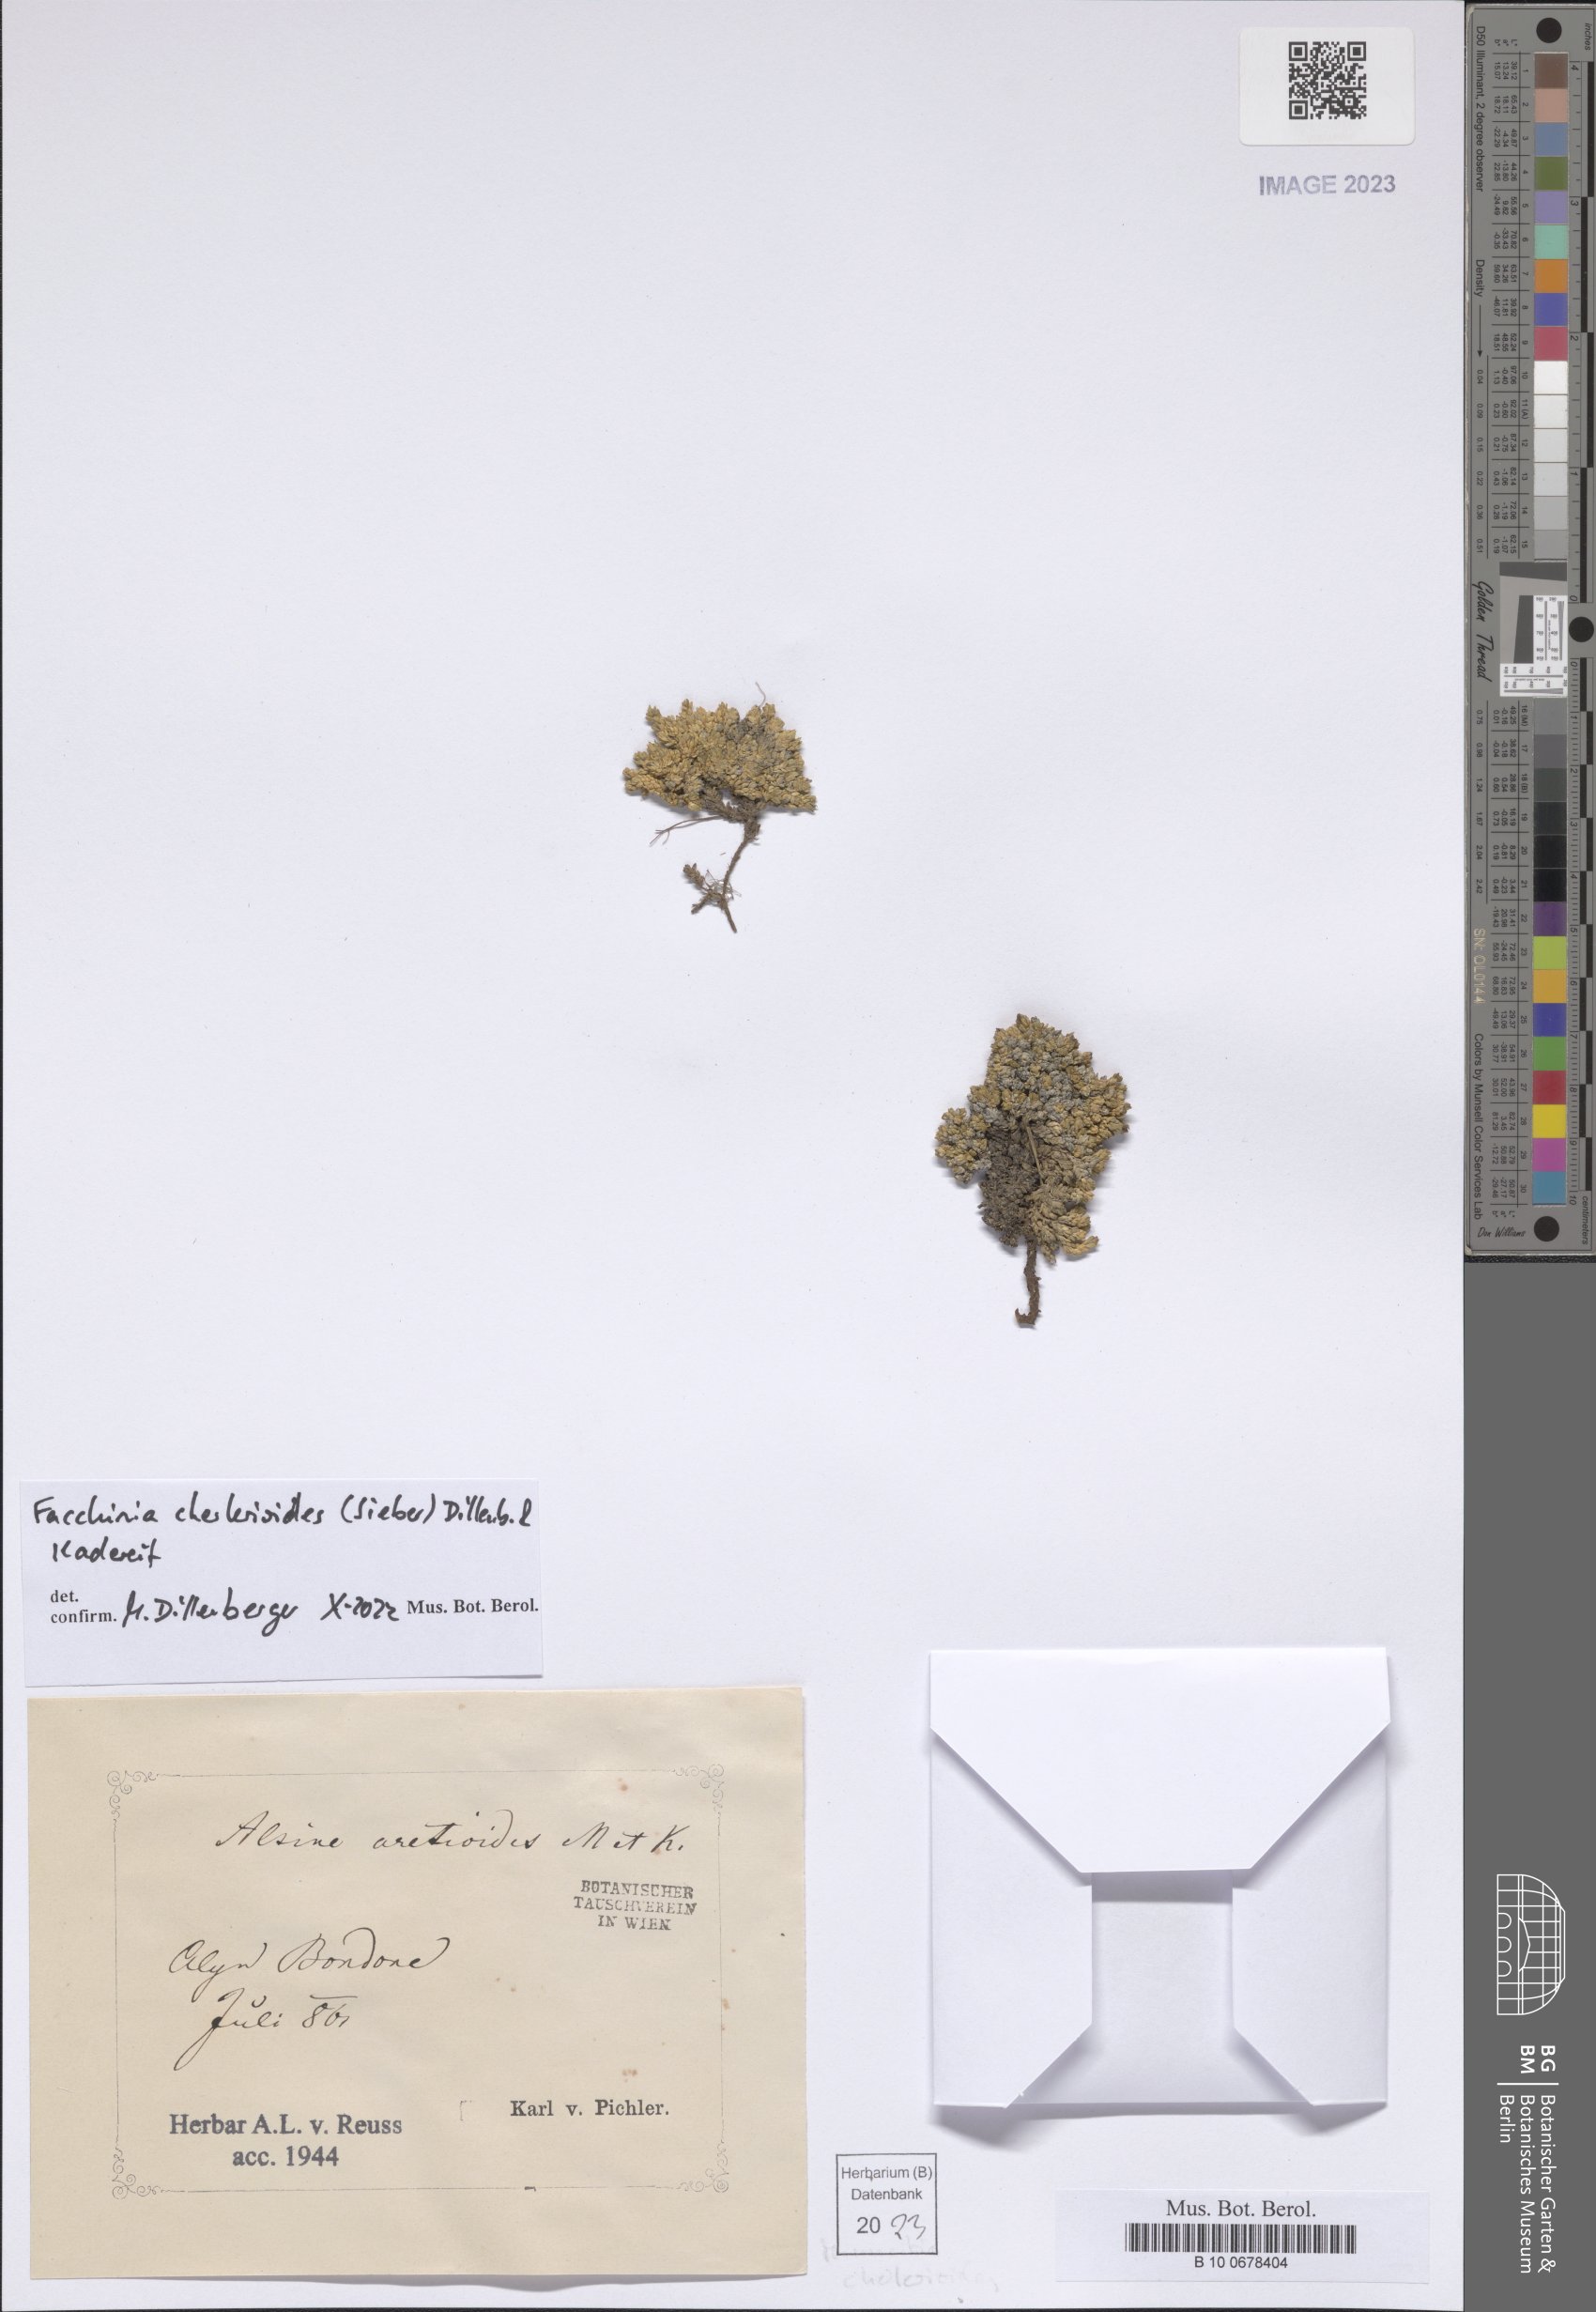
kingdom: Plantae
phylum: Tracheophyta
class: Magnoliopsida
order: Caryophyllales
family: Caryophyllaceae
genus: Facchinia
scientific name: Facchinia cherlerioides
